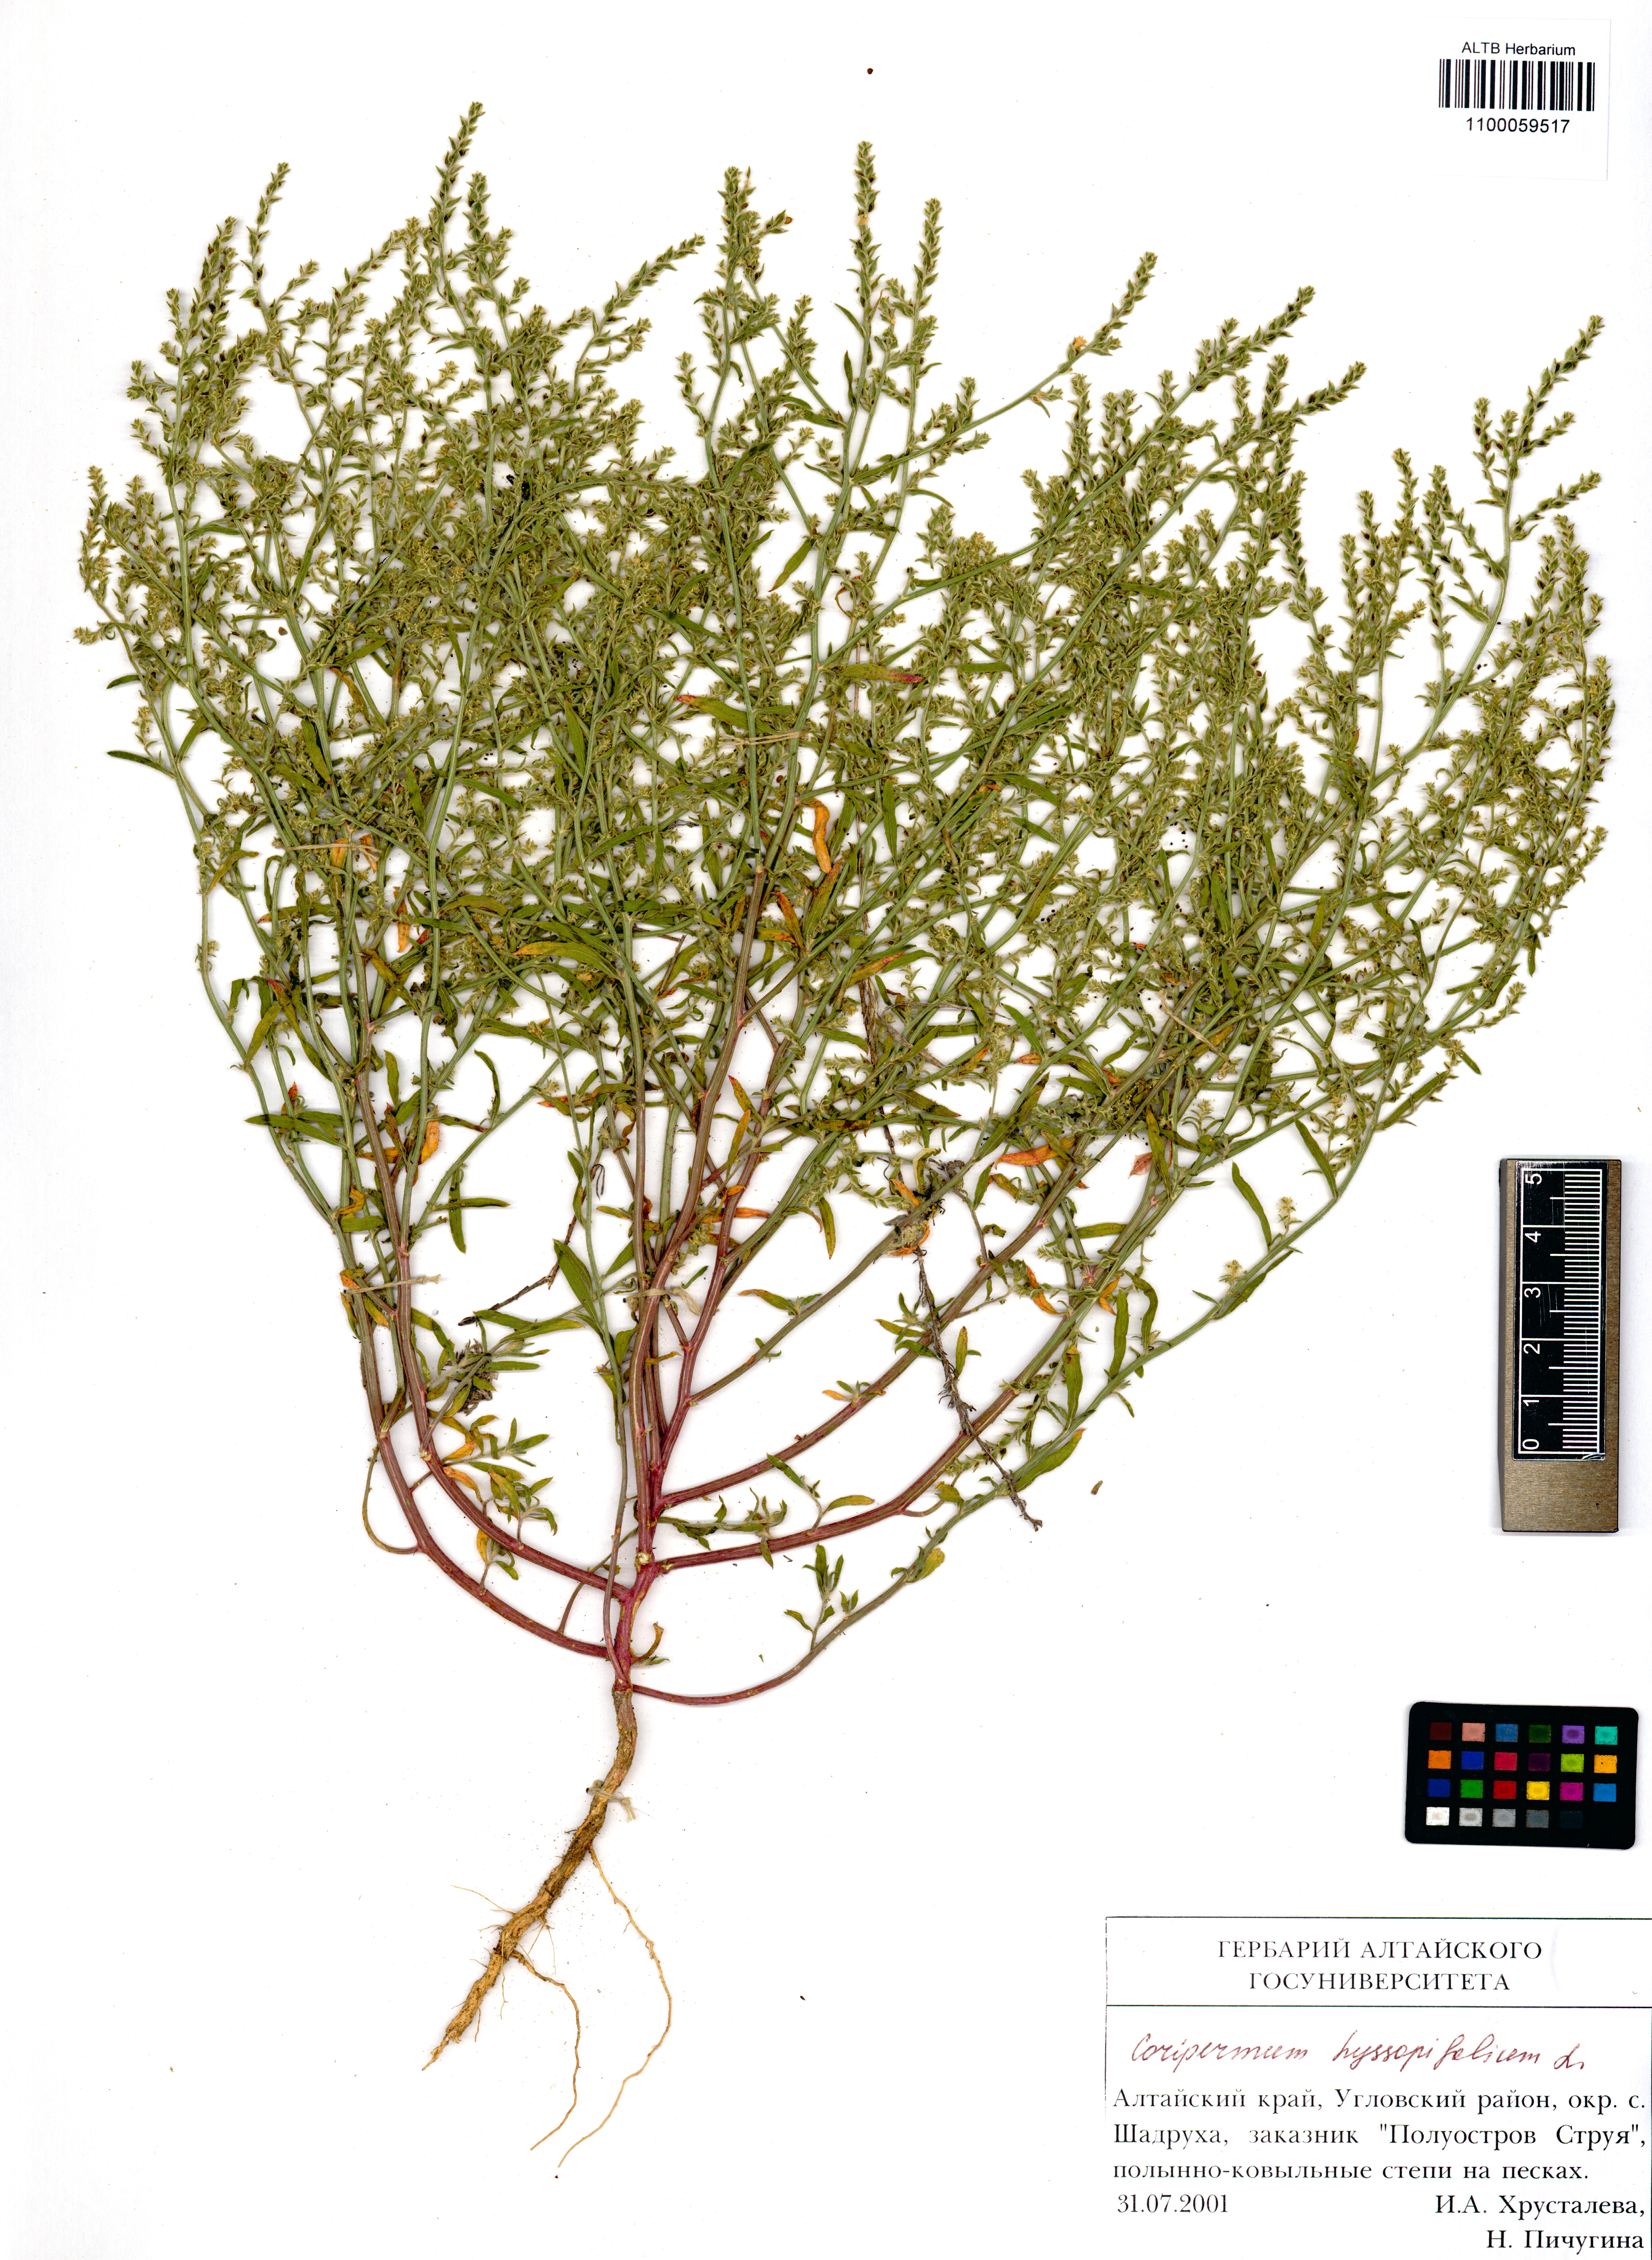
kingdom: Plantae
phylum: Tracheophyta
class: Magnoliopsida
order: Caryophyllales
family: Amaranthaceae
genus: Corispermum
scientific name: Corispermum hyssopifolium
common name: Bugseed
